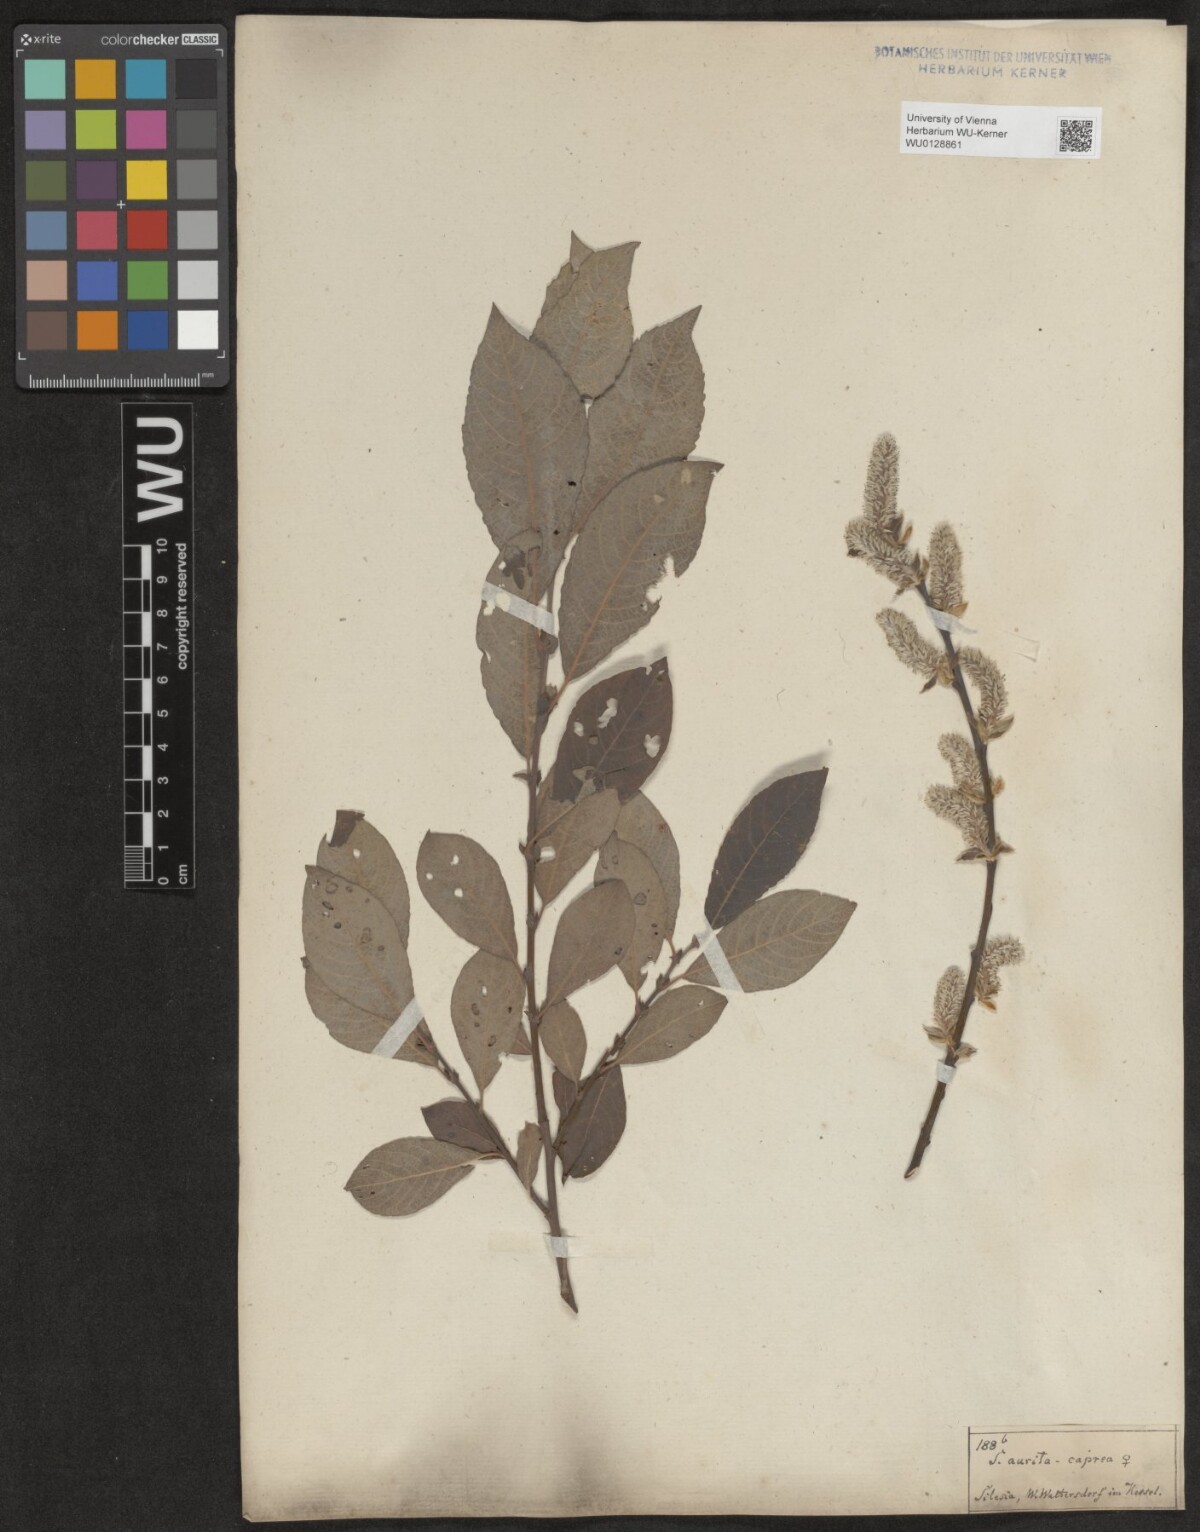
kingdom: Plantae
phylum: Tracheophyta
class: Magnoliopsida
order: Malpighiales
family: Salicaceae
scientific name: Salicaceae
